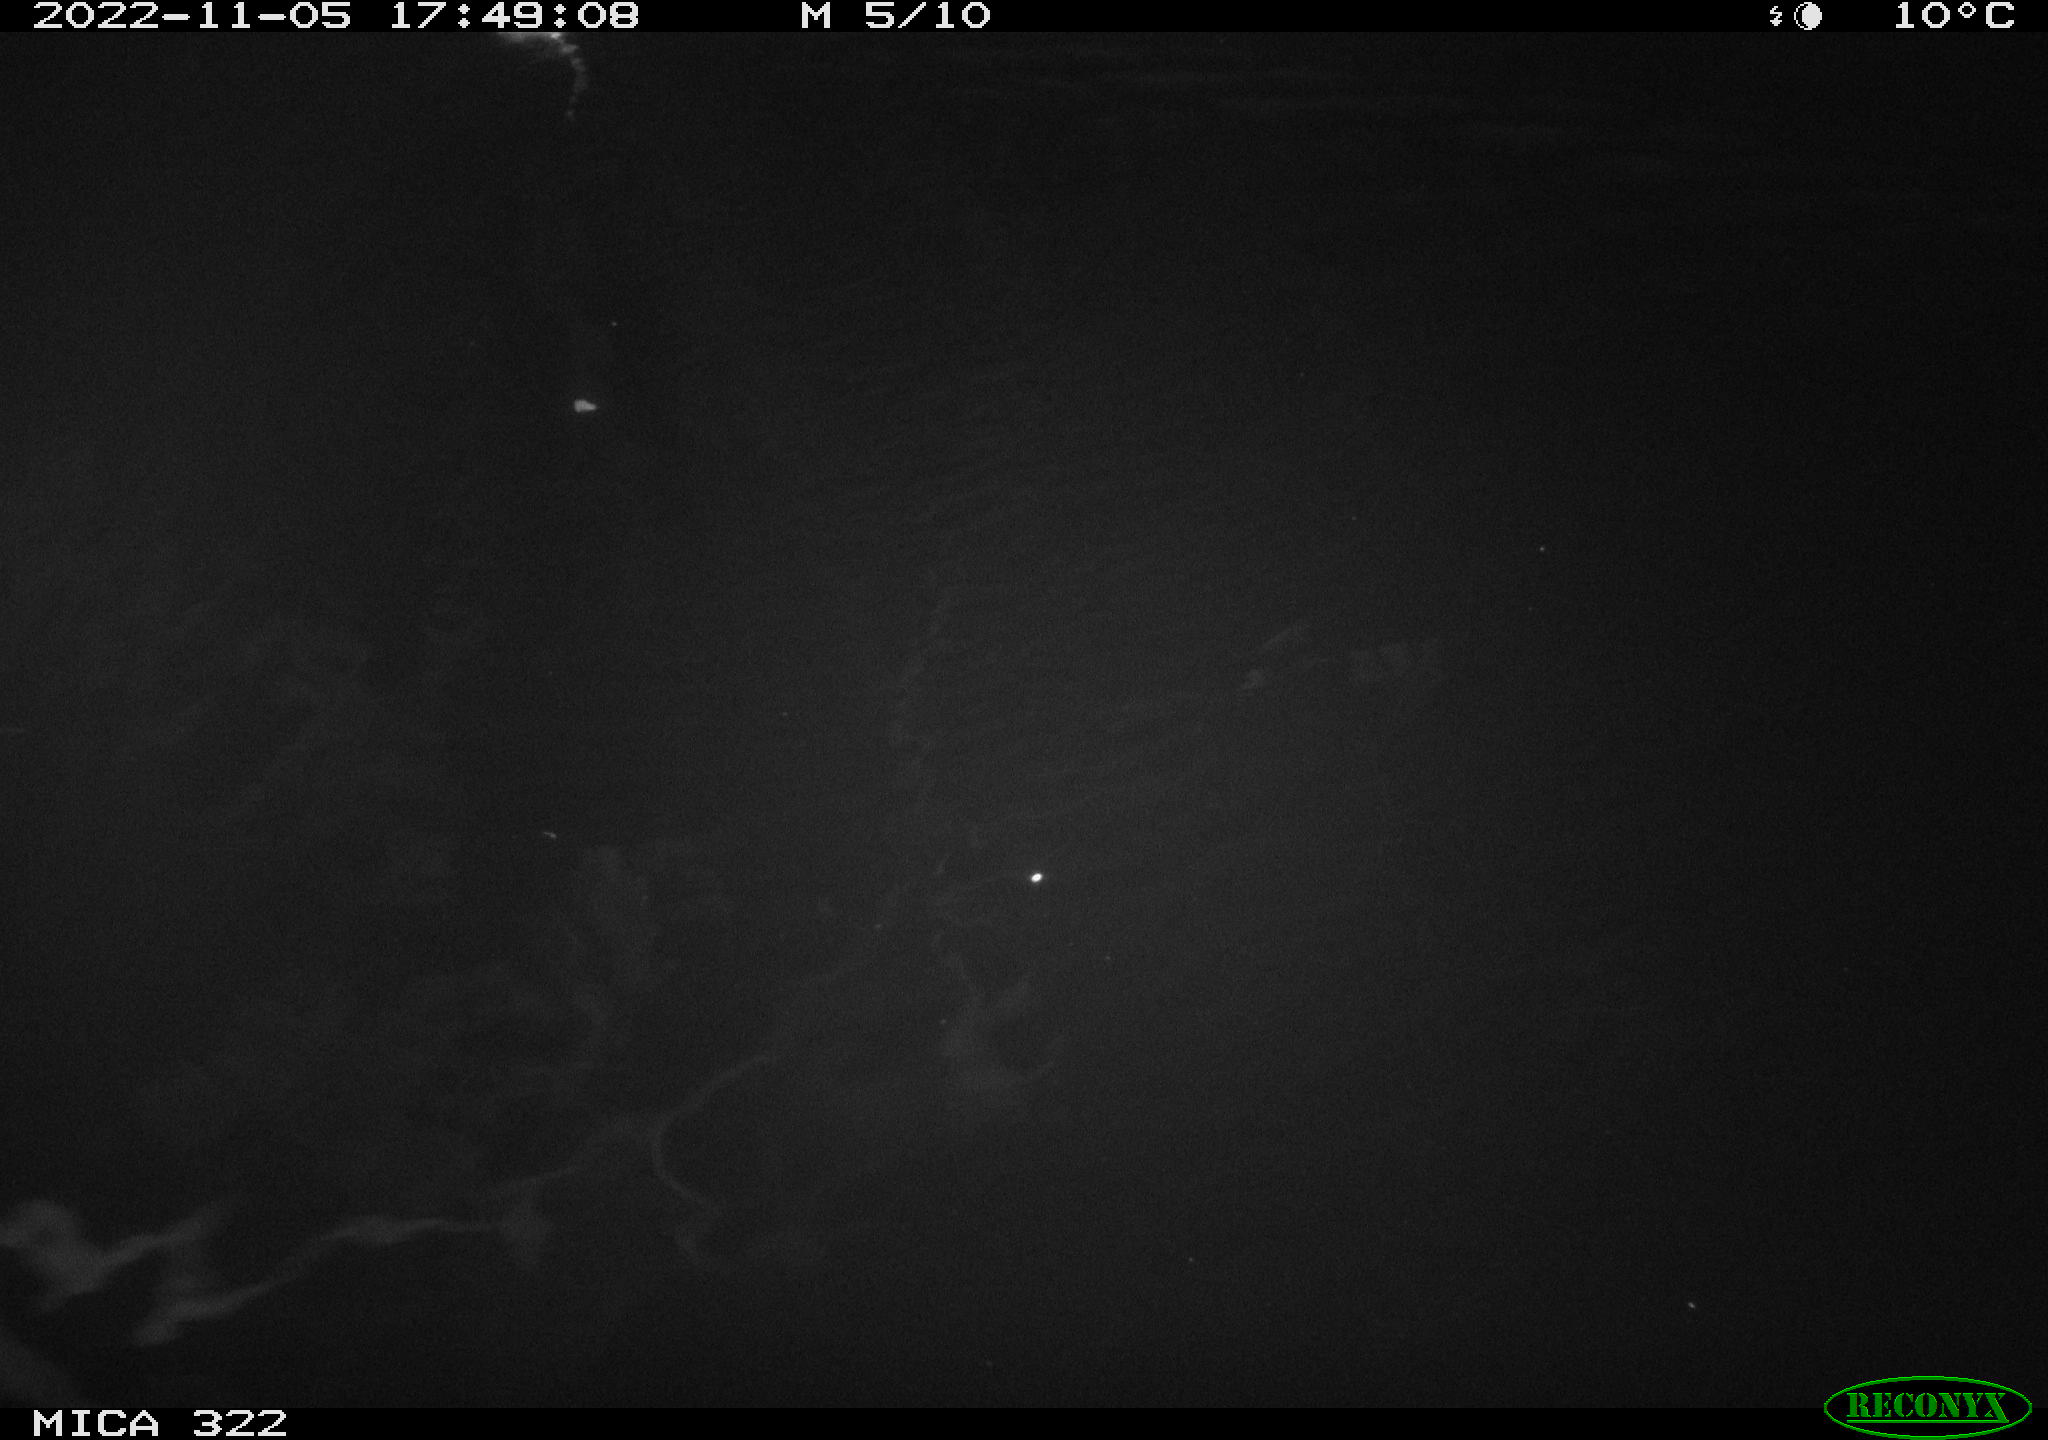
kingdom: Animalia
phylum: Chordata
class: Mammalia
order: Rodentia
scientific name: Rodentia
